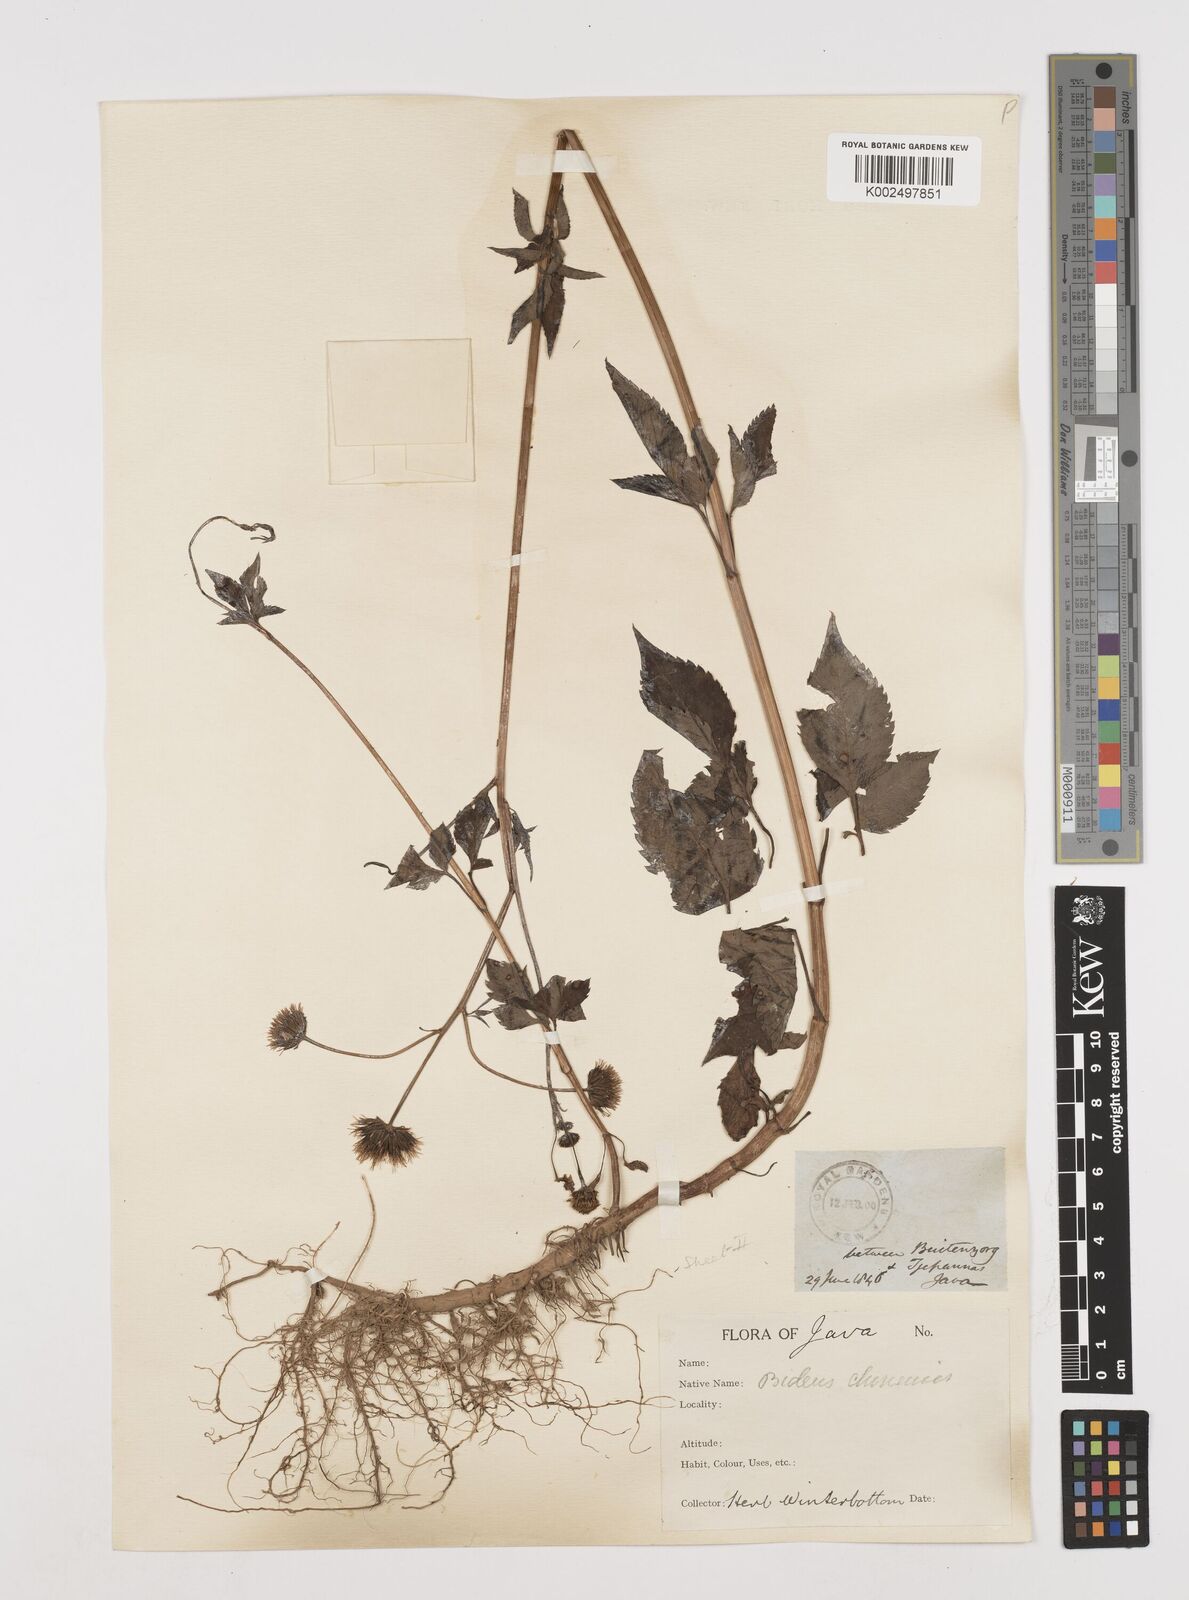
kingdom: Plantae
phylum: Tracheophyta
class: Magnoliopsida
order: Asterales
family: Asteraceae
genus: Bidens
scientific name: Bidens biternata
